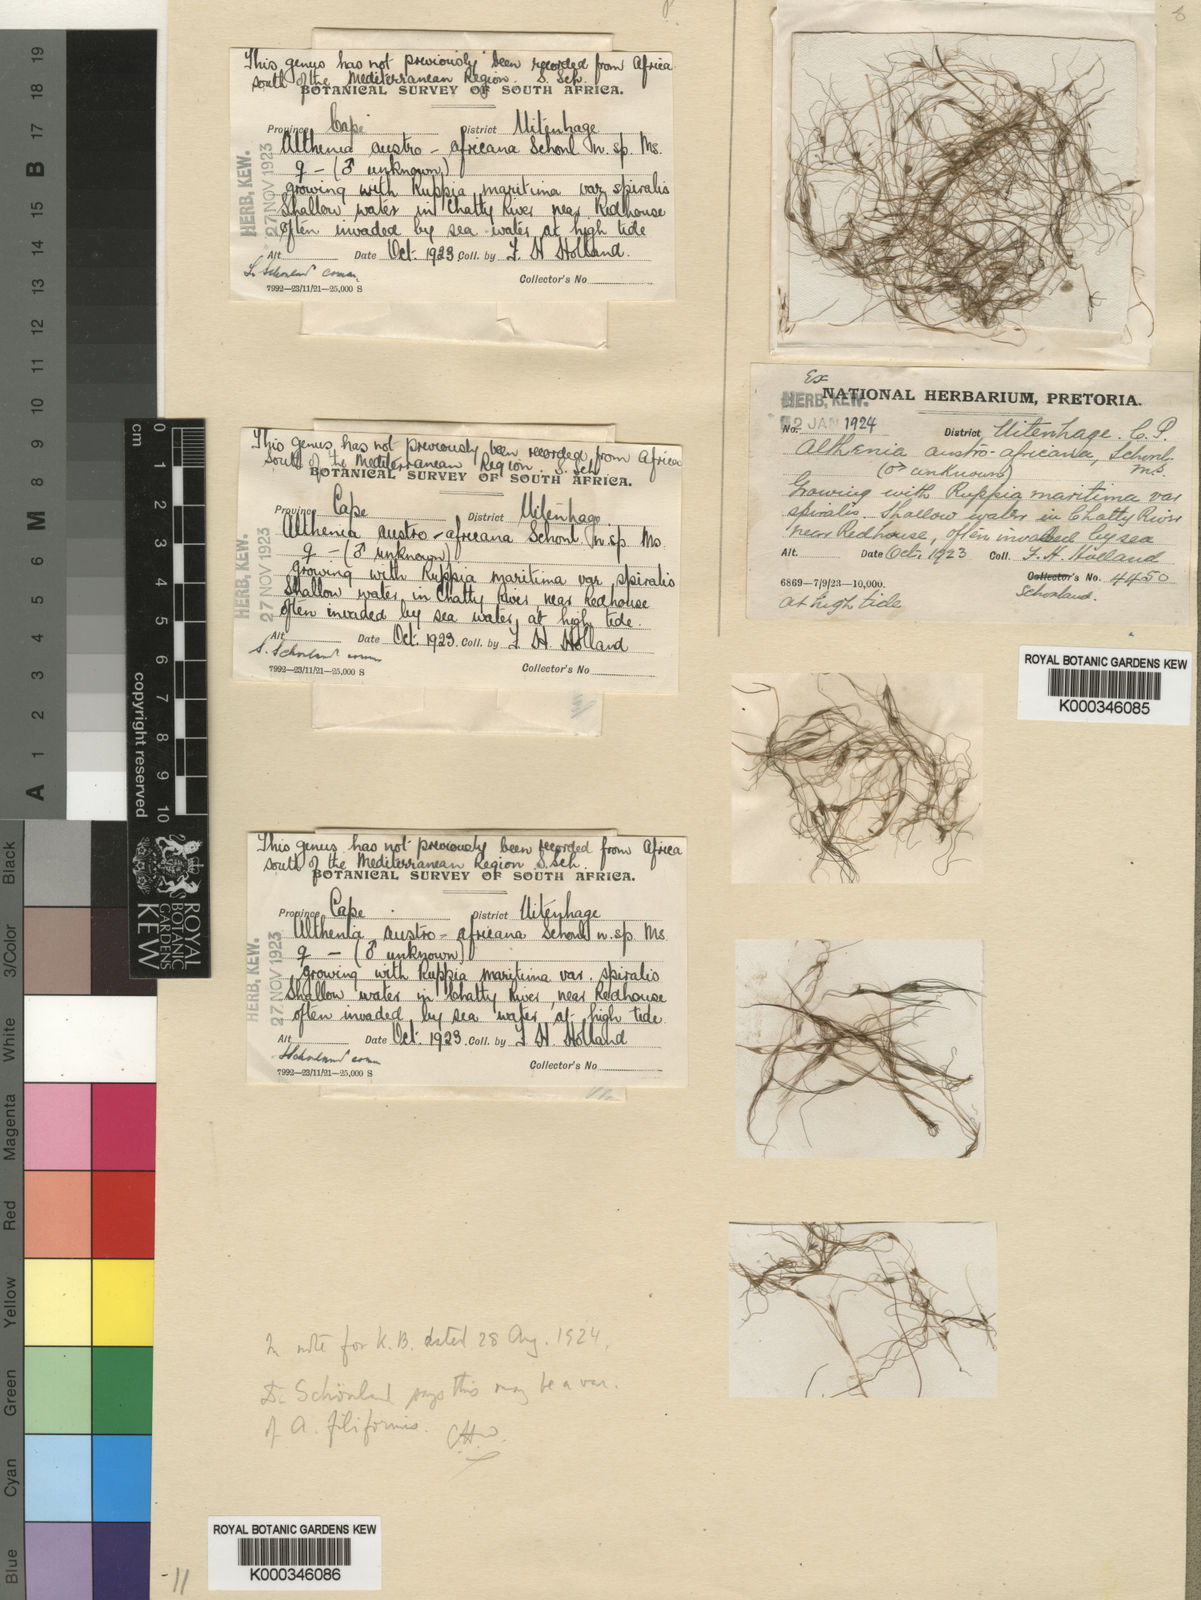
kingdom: Plantae
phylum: Tracheophyta
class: Liliopsida
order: Alismatales
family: Potamogetonaceae
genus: Althenia
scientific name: Althenia filiformis
